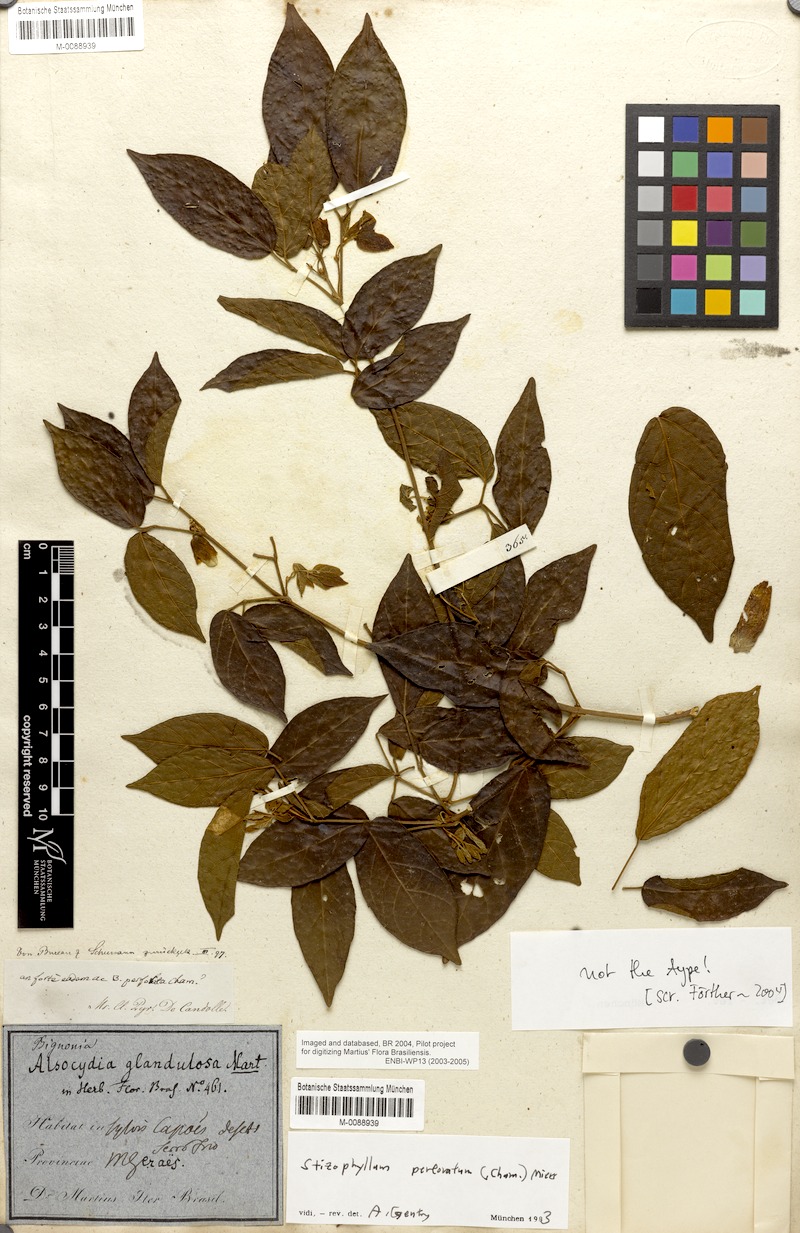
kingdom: Plantae
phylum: Tracheophyta
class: Magnoliopsida
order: Lamiales
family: Bignoniaceae
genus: Stizophyllum
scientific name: Stizophyllum perforatum
